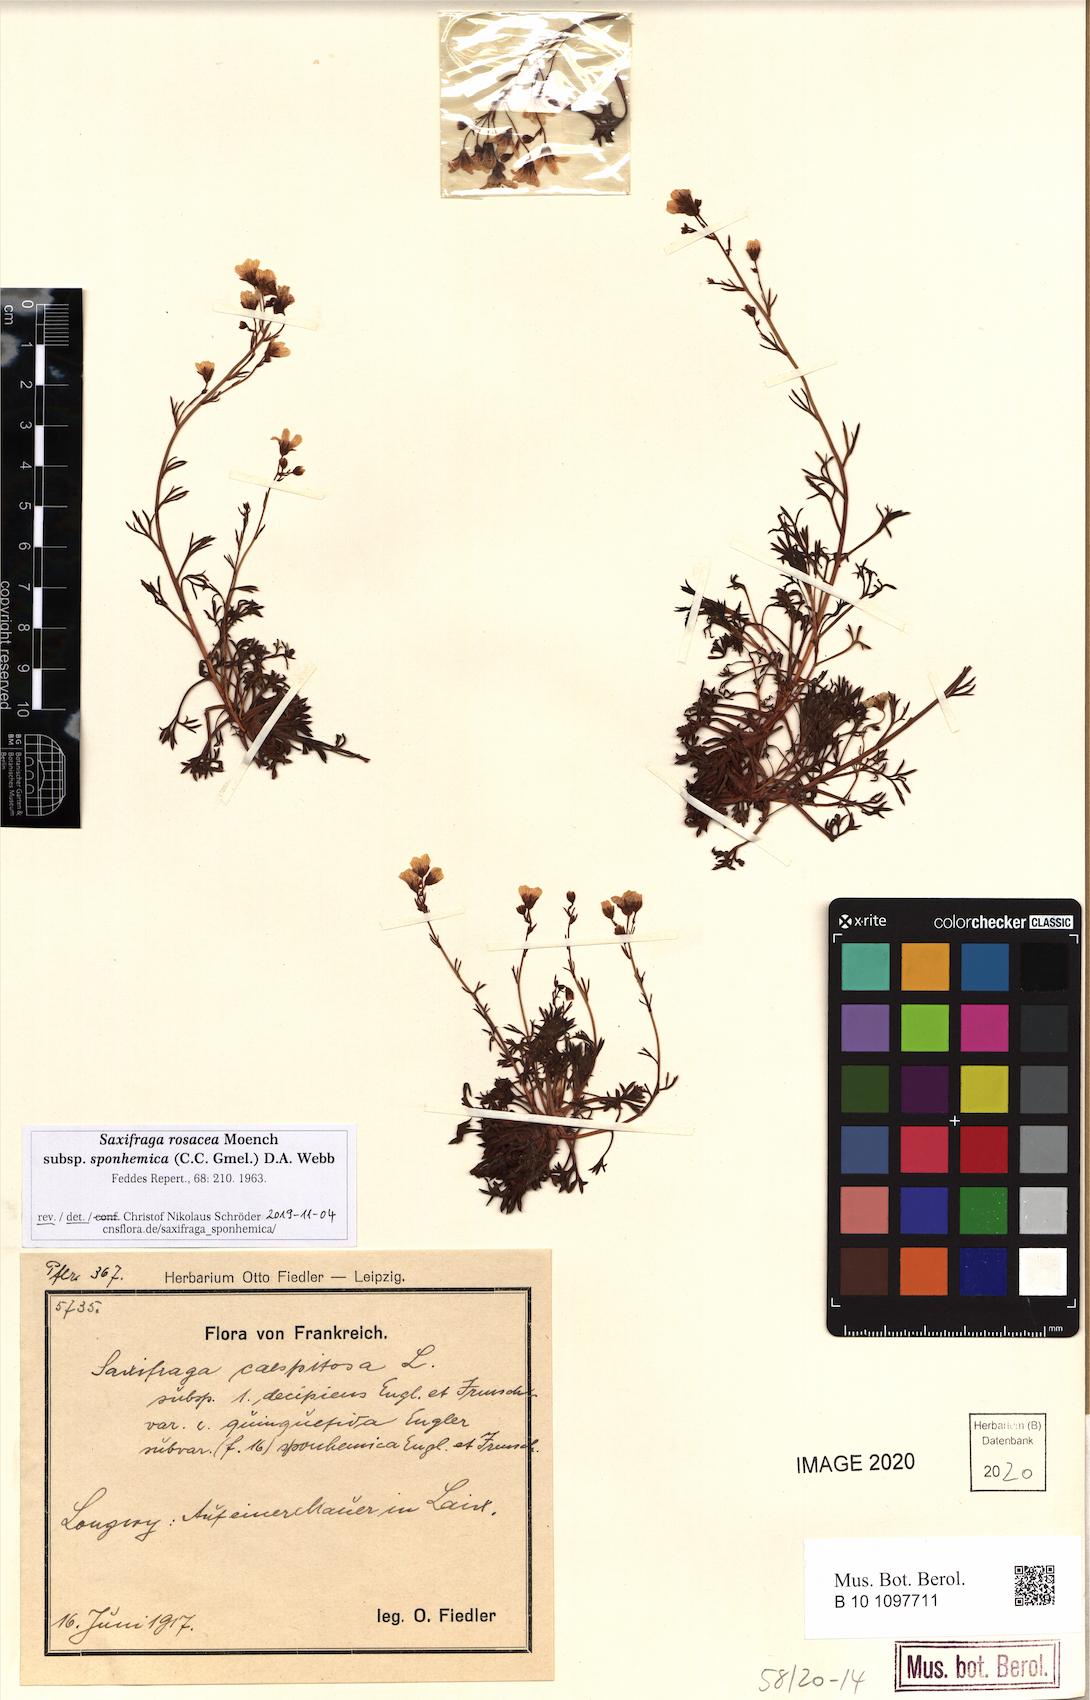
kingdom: Plantae
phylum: Tracheophyta
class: Magnoliopsida
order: Saxifragales
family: Saxifragaceae
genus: Saxifraga
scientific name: Saxifraga rosacea
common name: Irish saxifrage
